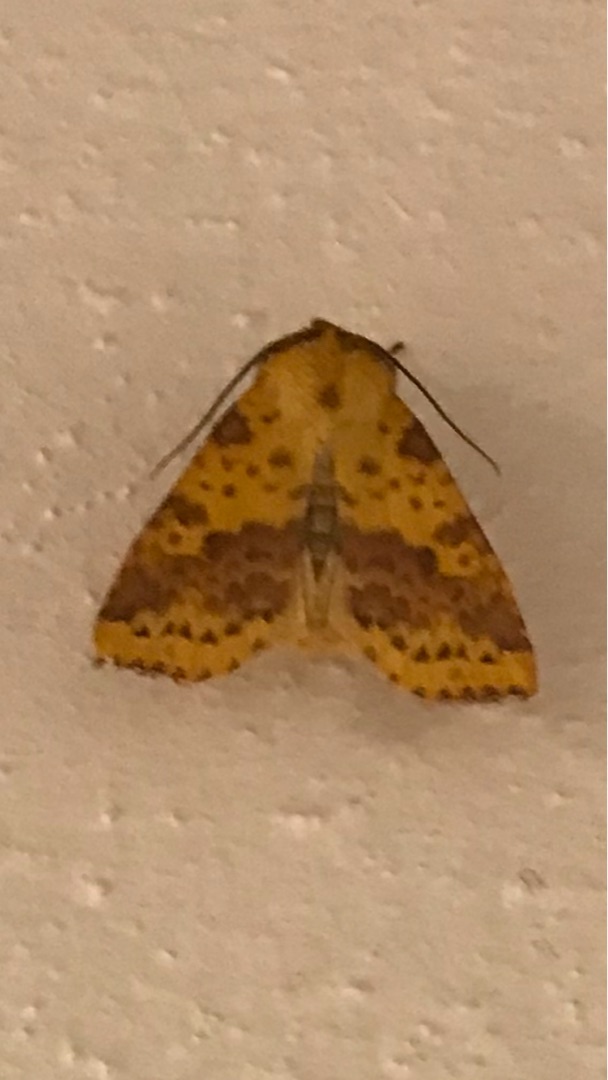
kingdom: Animalia
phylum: Arthropoda
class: Insecta
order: Lepidoptera
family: Noctuidae
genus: Xanthia
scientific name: Xanthia togata
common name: Toga-septemberugle
